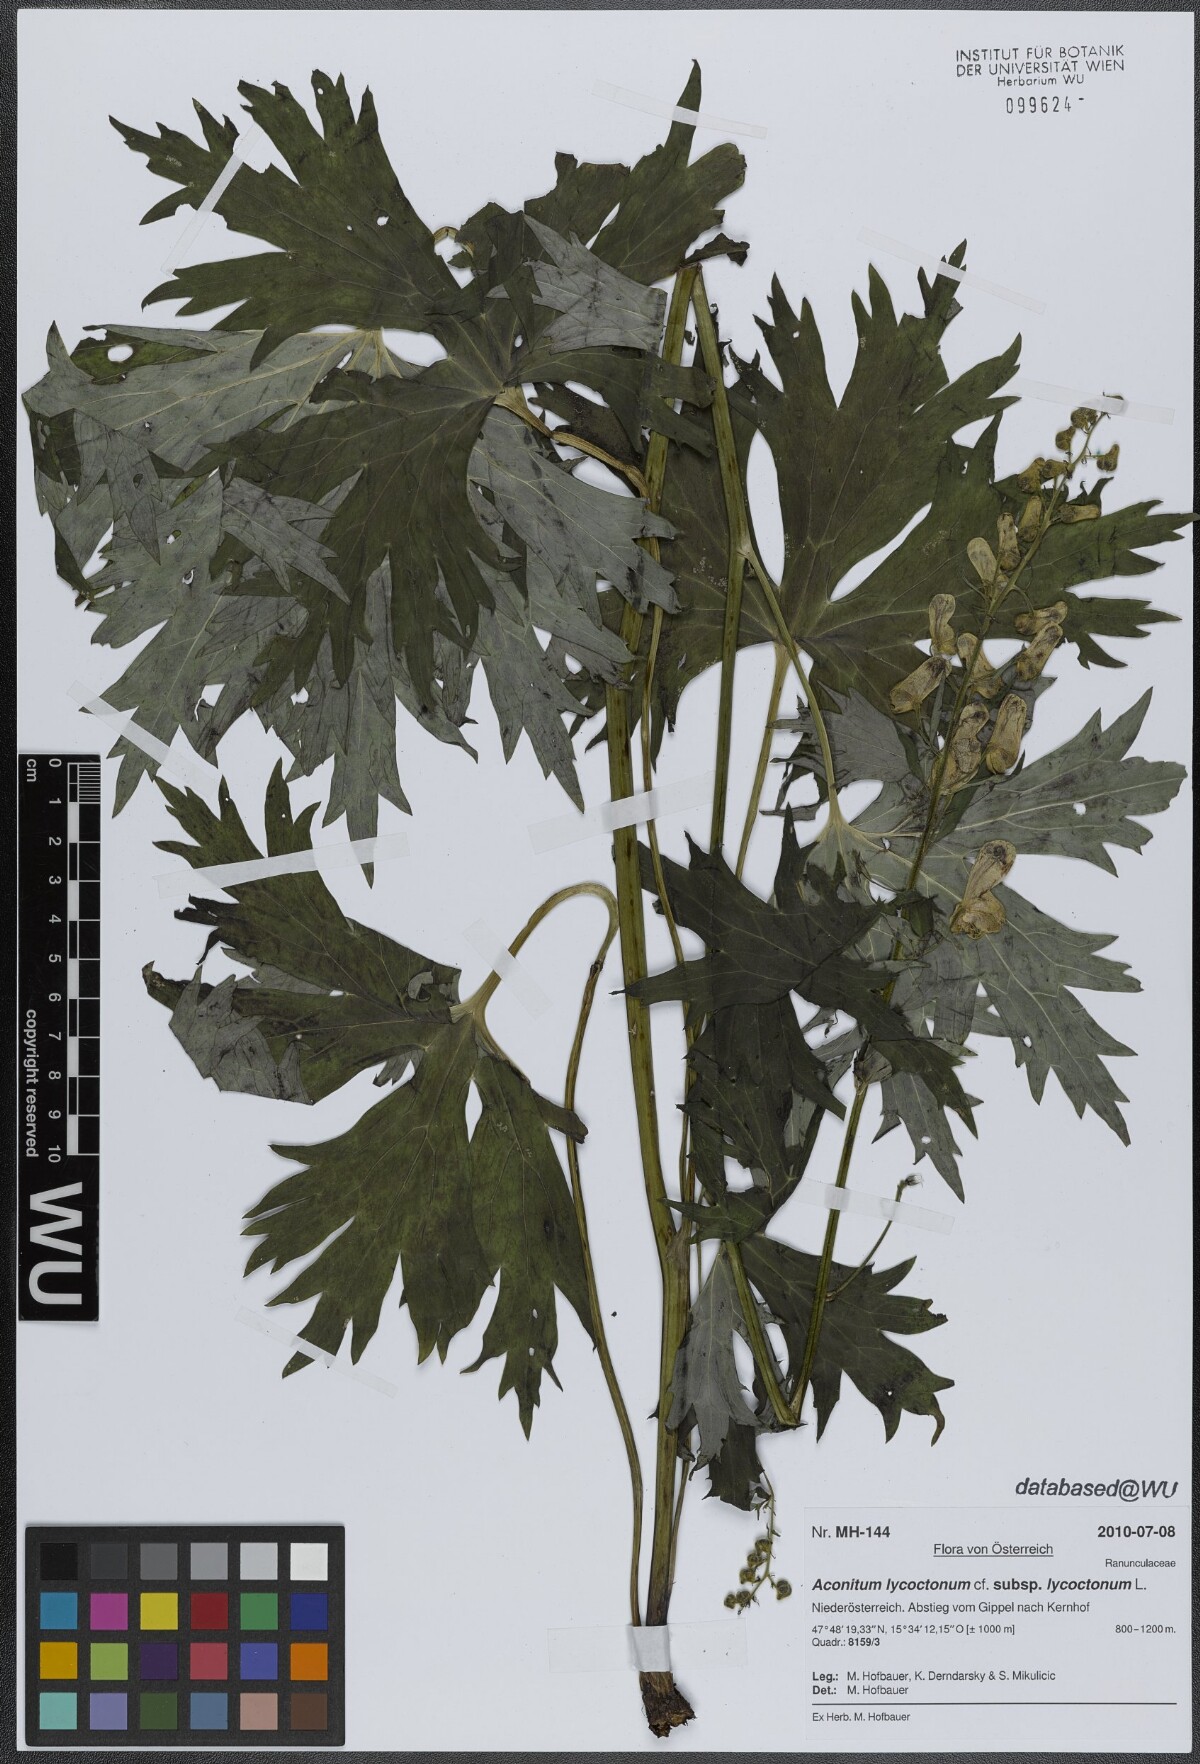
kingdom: Plantae
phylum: Tracheophyta
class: Magnoliopsida
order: Ranunculales
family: Ranunculaceae
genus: Aconitum
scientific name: Aconitum lycoctonum
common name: Wolf's-bane
